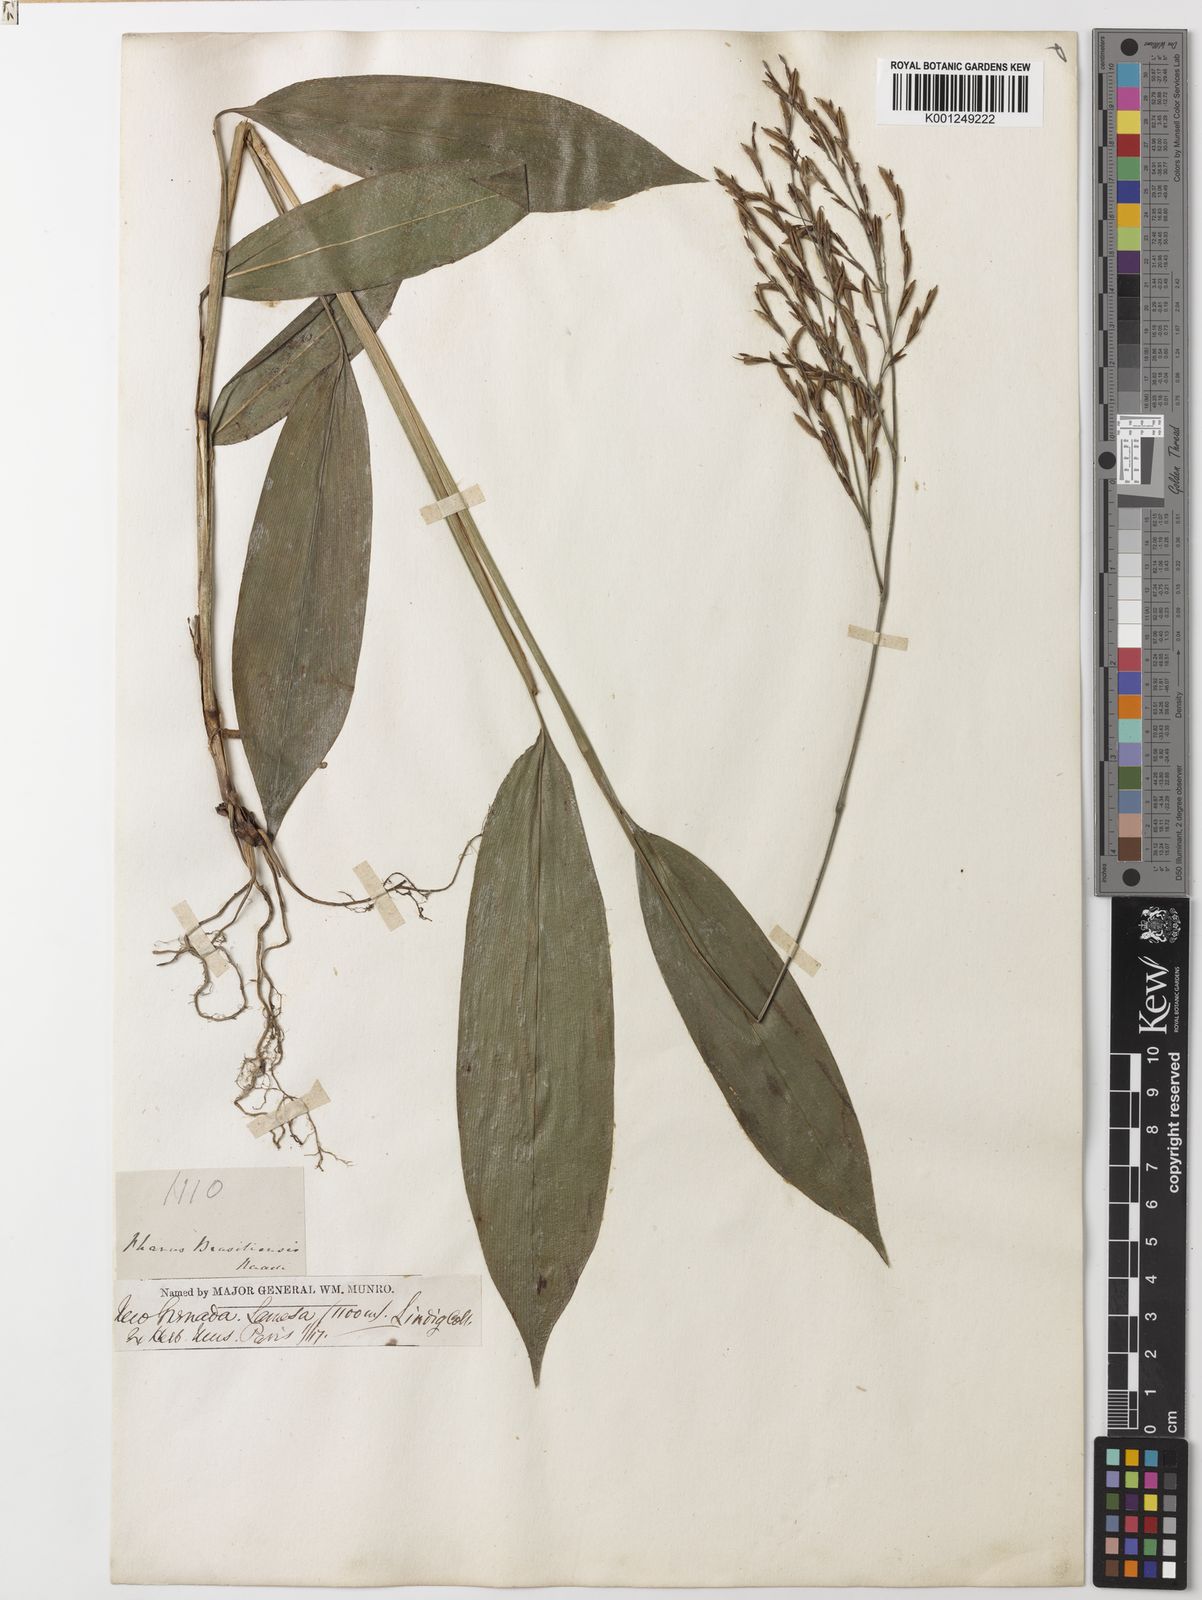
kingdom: Plantae
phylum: Tracheophyta
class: Liliopsida
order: Poales
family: Poaceae
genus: Pharus
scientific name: Pharus lappulaceus
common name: Creeping leafstalk grass
